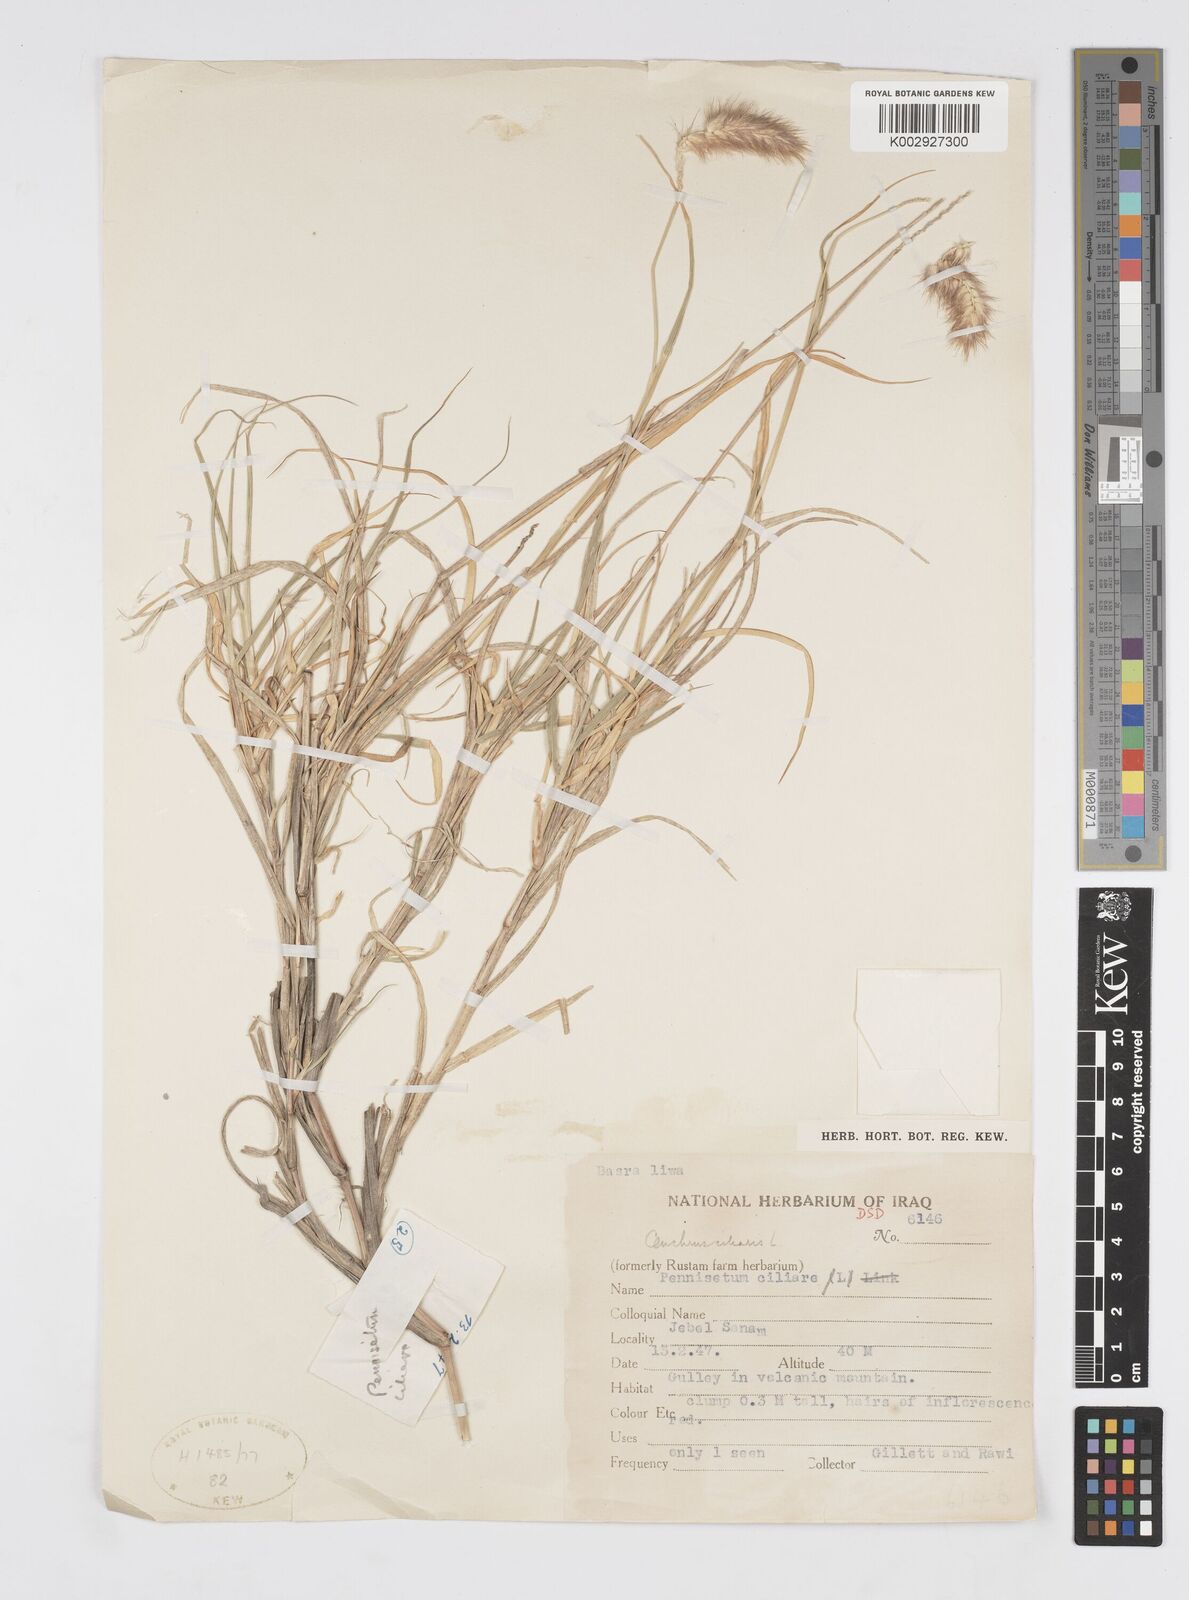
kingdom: Plantae
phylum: Tracheophyta
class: Liliopsida
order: Poales
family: Poaceae
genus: Cenchrus
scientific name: Cenchrus ciliaris
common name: Buffelgrass
